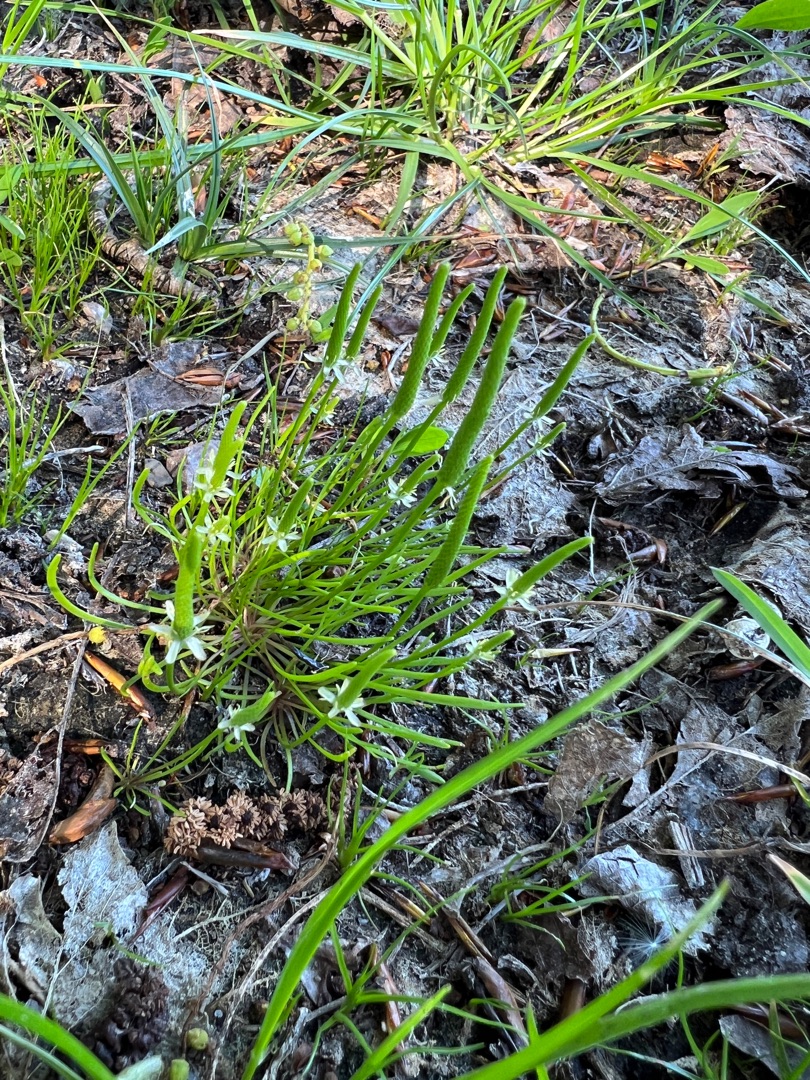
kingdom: Plantae
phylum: Tracheophyta
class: Magnoliopsida
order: Ranunculales
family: Ranunculaceae
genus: Myosurus
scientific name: Myosurus minimus
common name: Musehale
